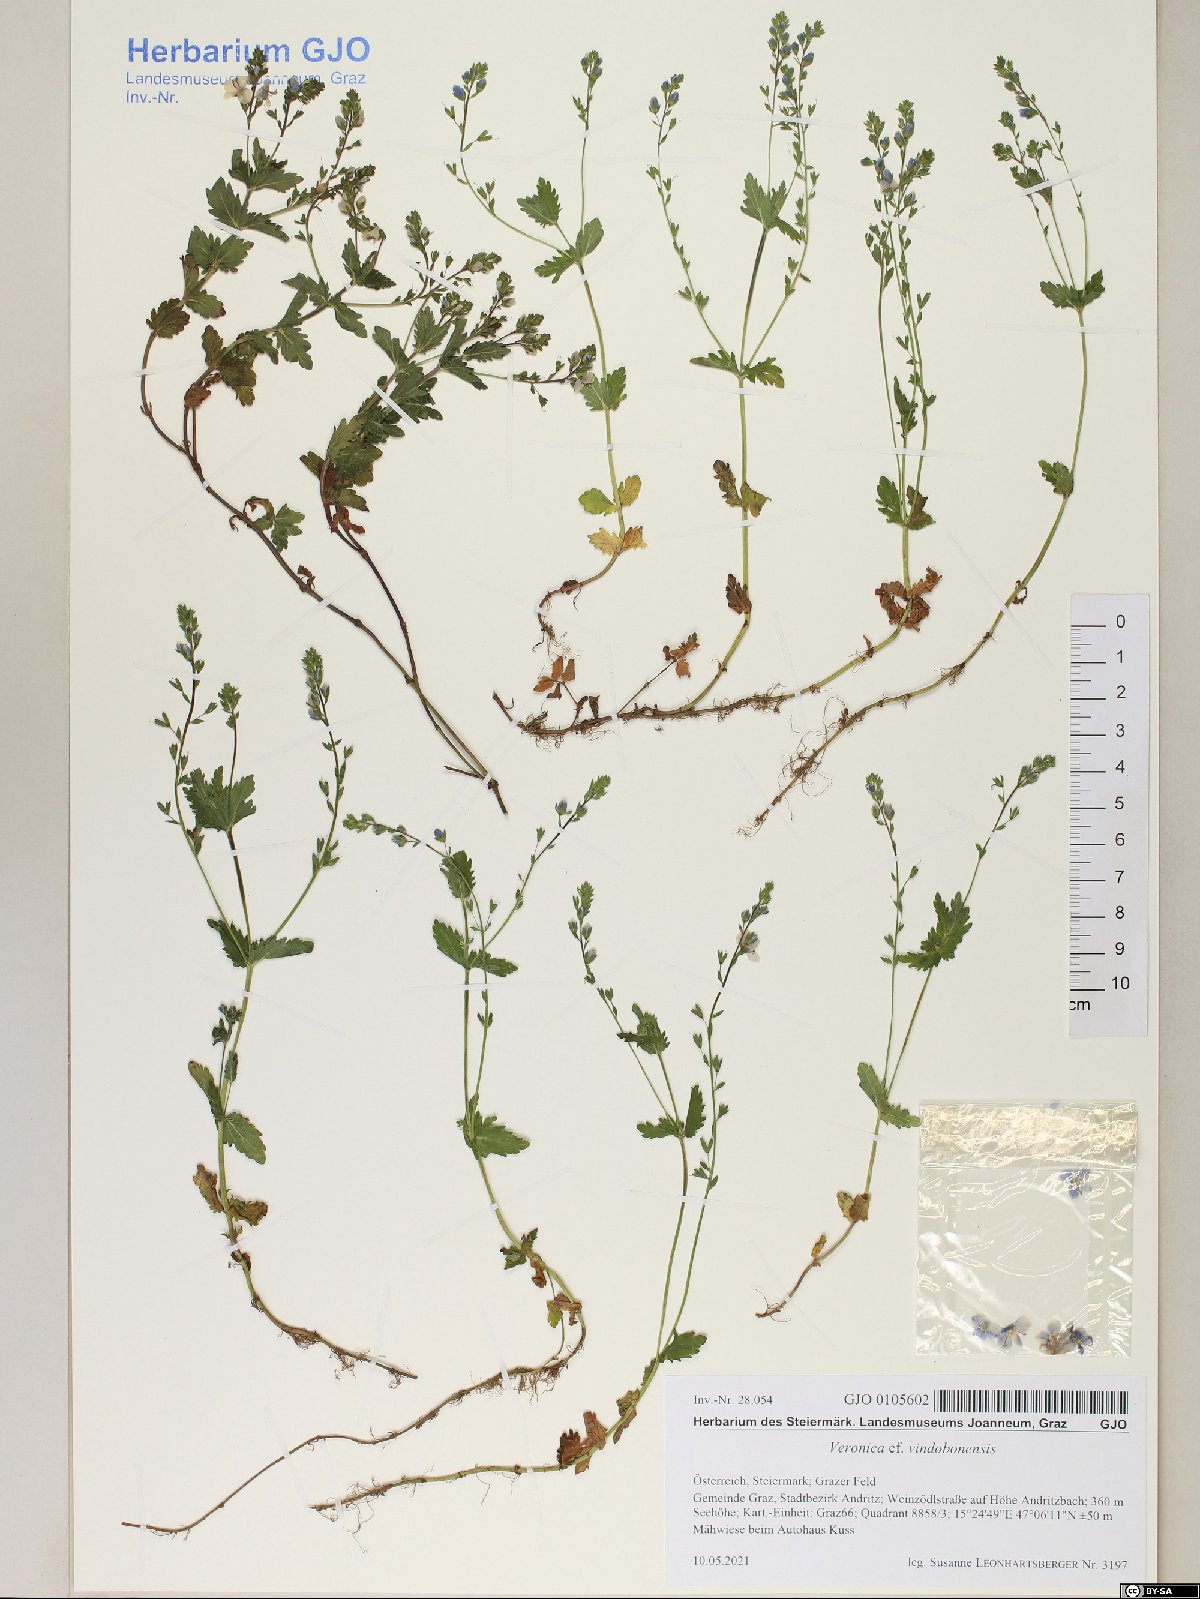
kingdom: Plantae
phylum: Tracheophyta
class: Magnoliopsida
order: Lamiales
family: Plantaginaceae
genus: Veronica
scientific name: Veronica vindobonensis
